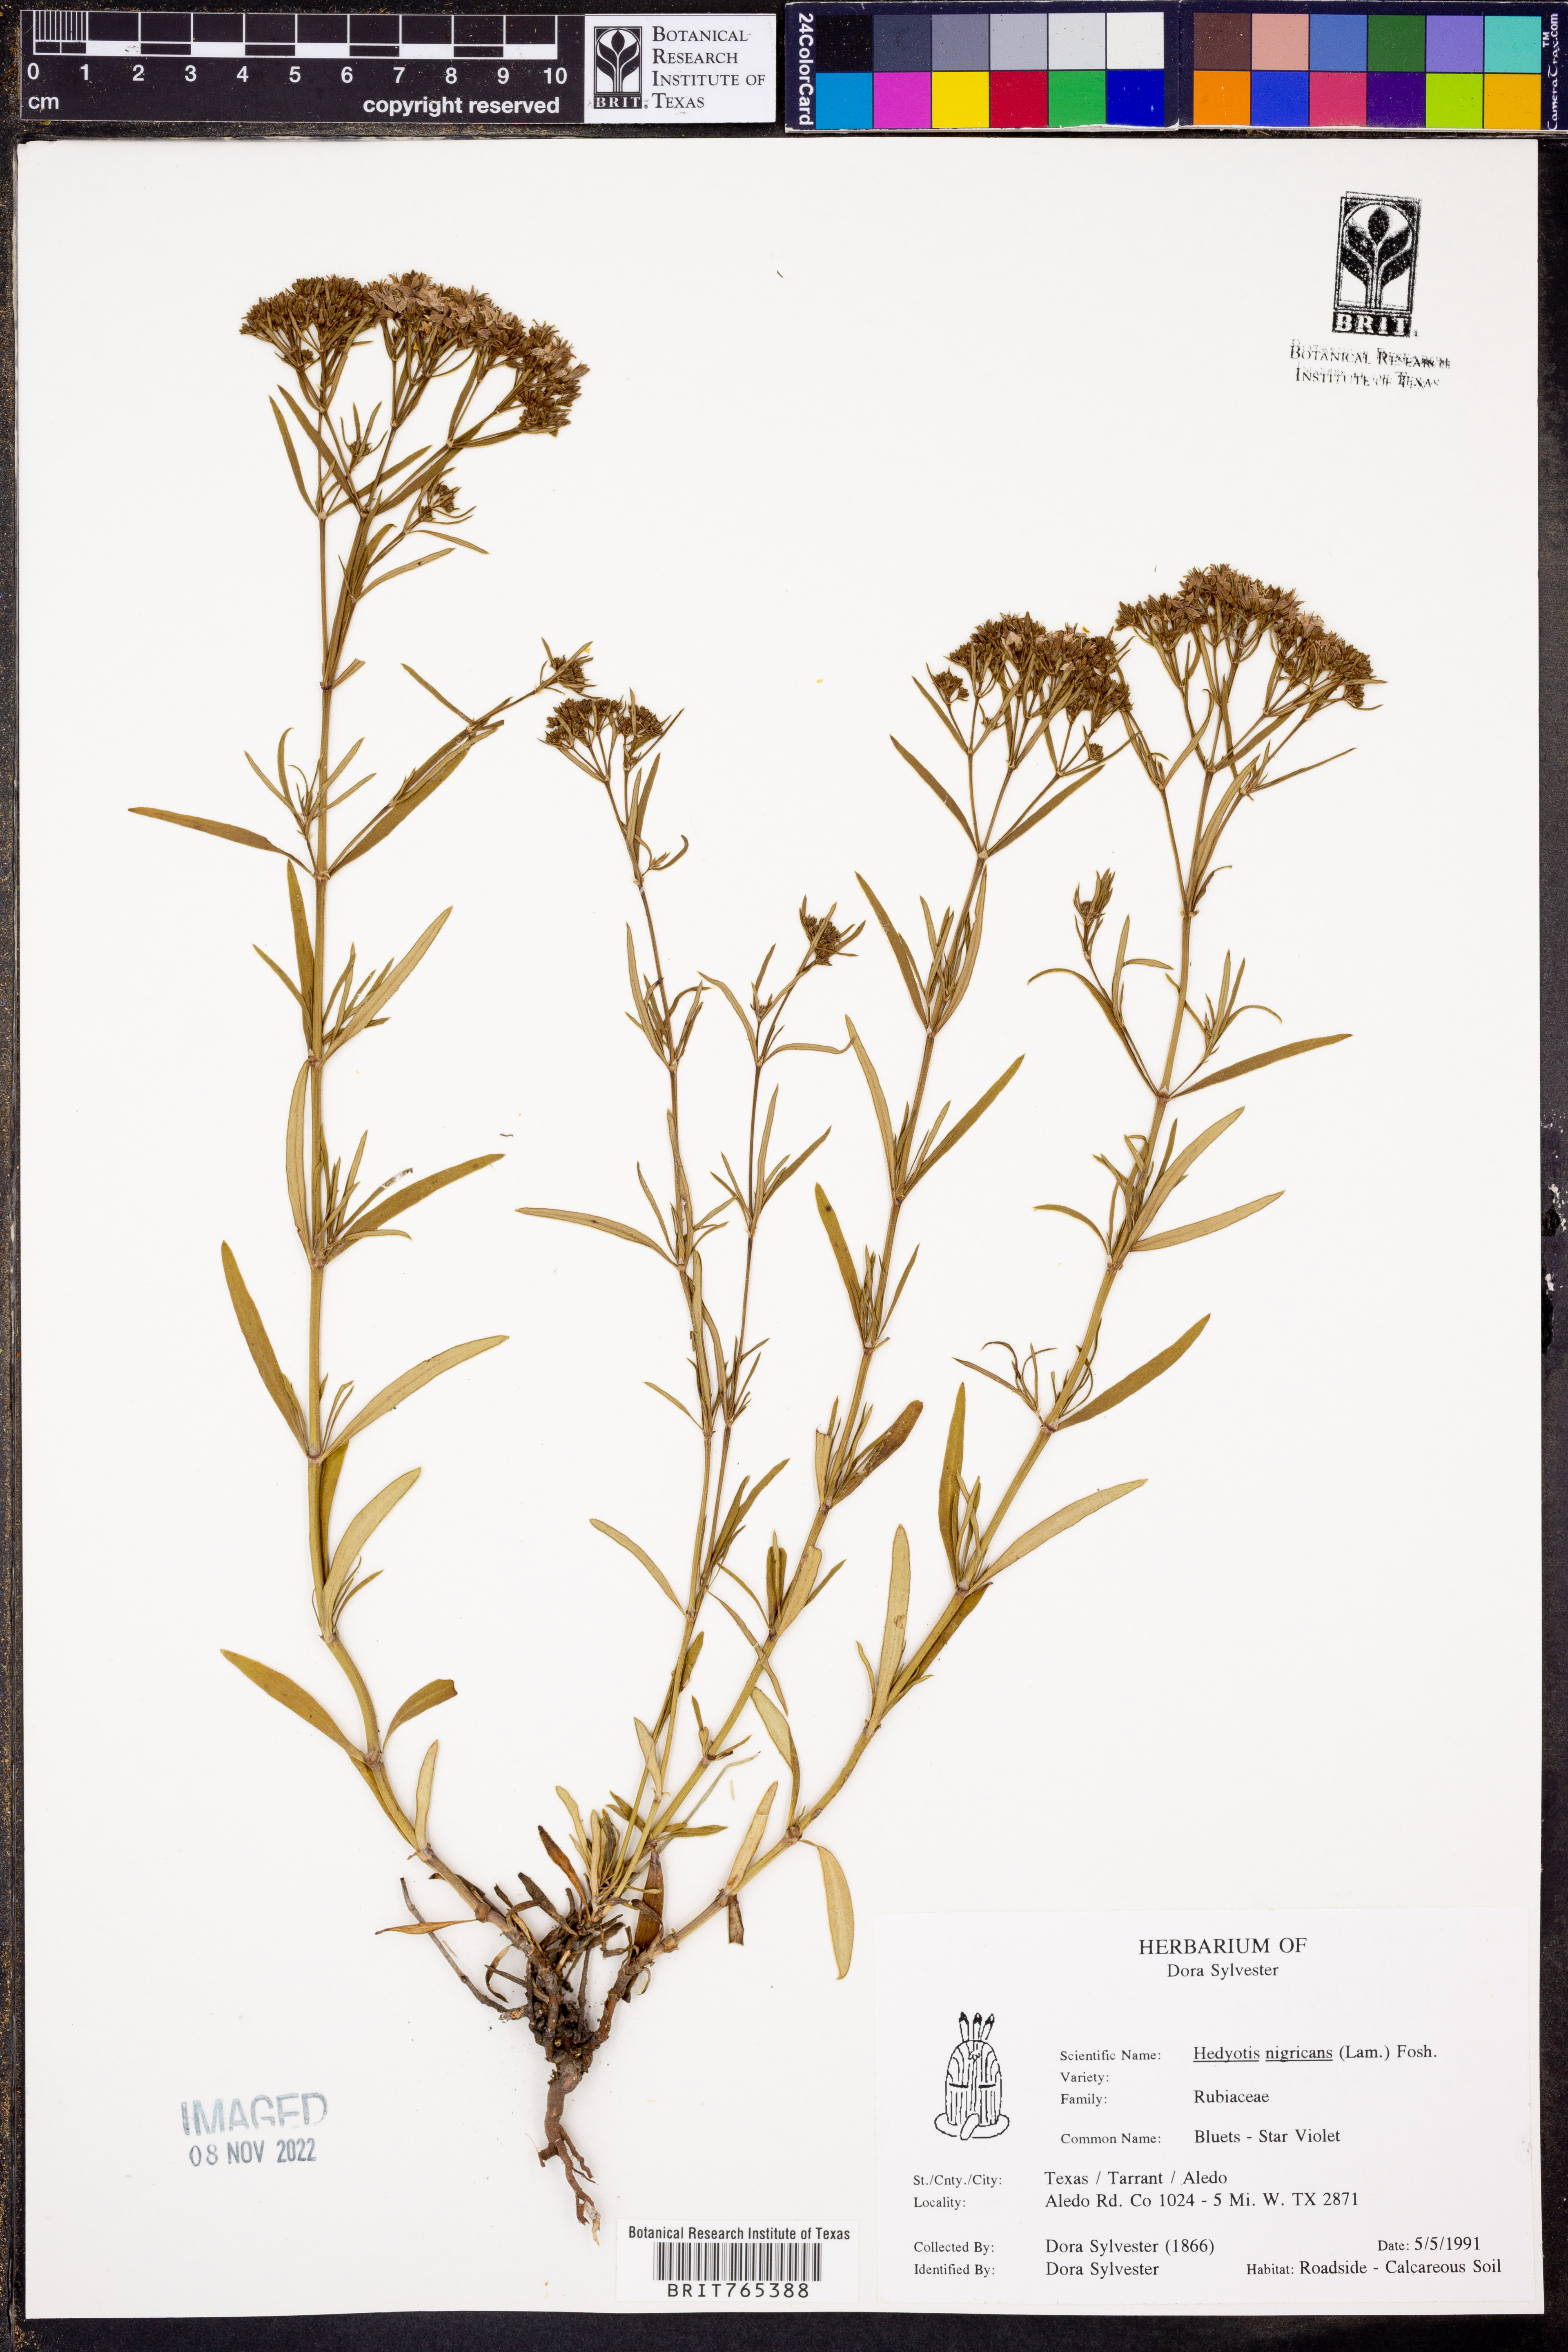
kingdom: Plantae
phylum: Tracheophyta
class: Magnoliopsida
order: Gentianales
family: Rubiaceae
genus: Stenaria
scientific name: Stenaria nigricans
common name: Diamondflowers
